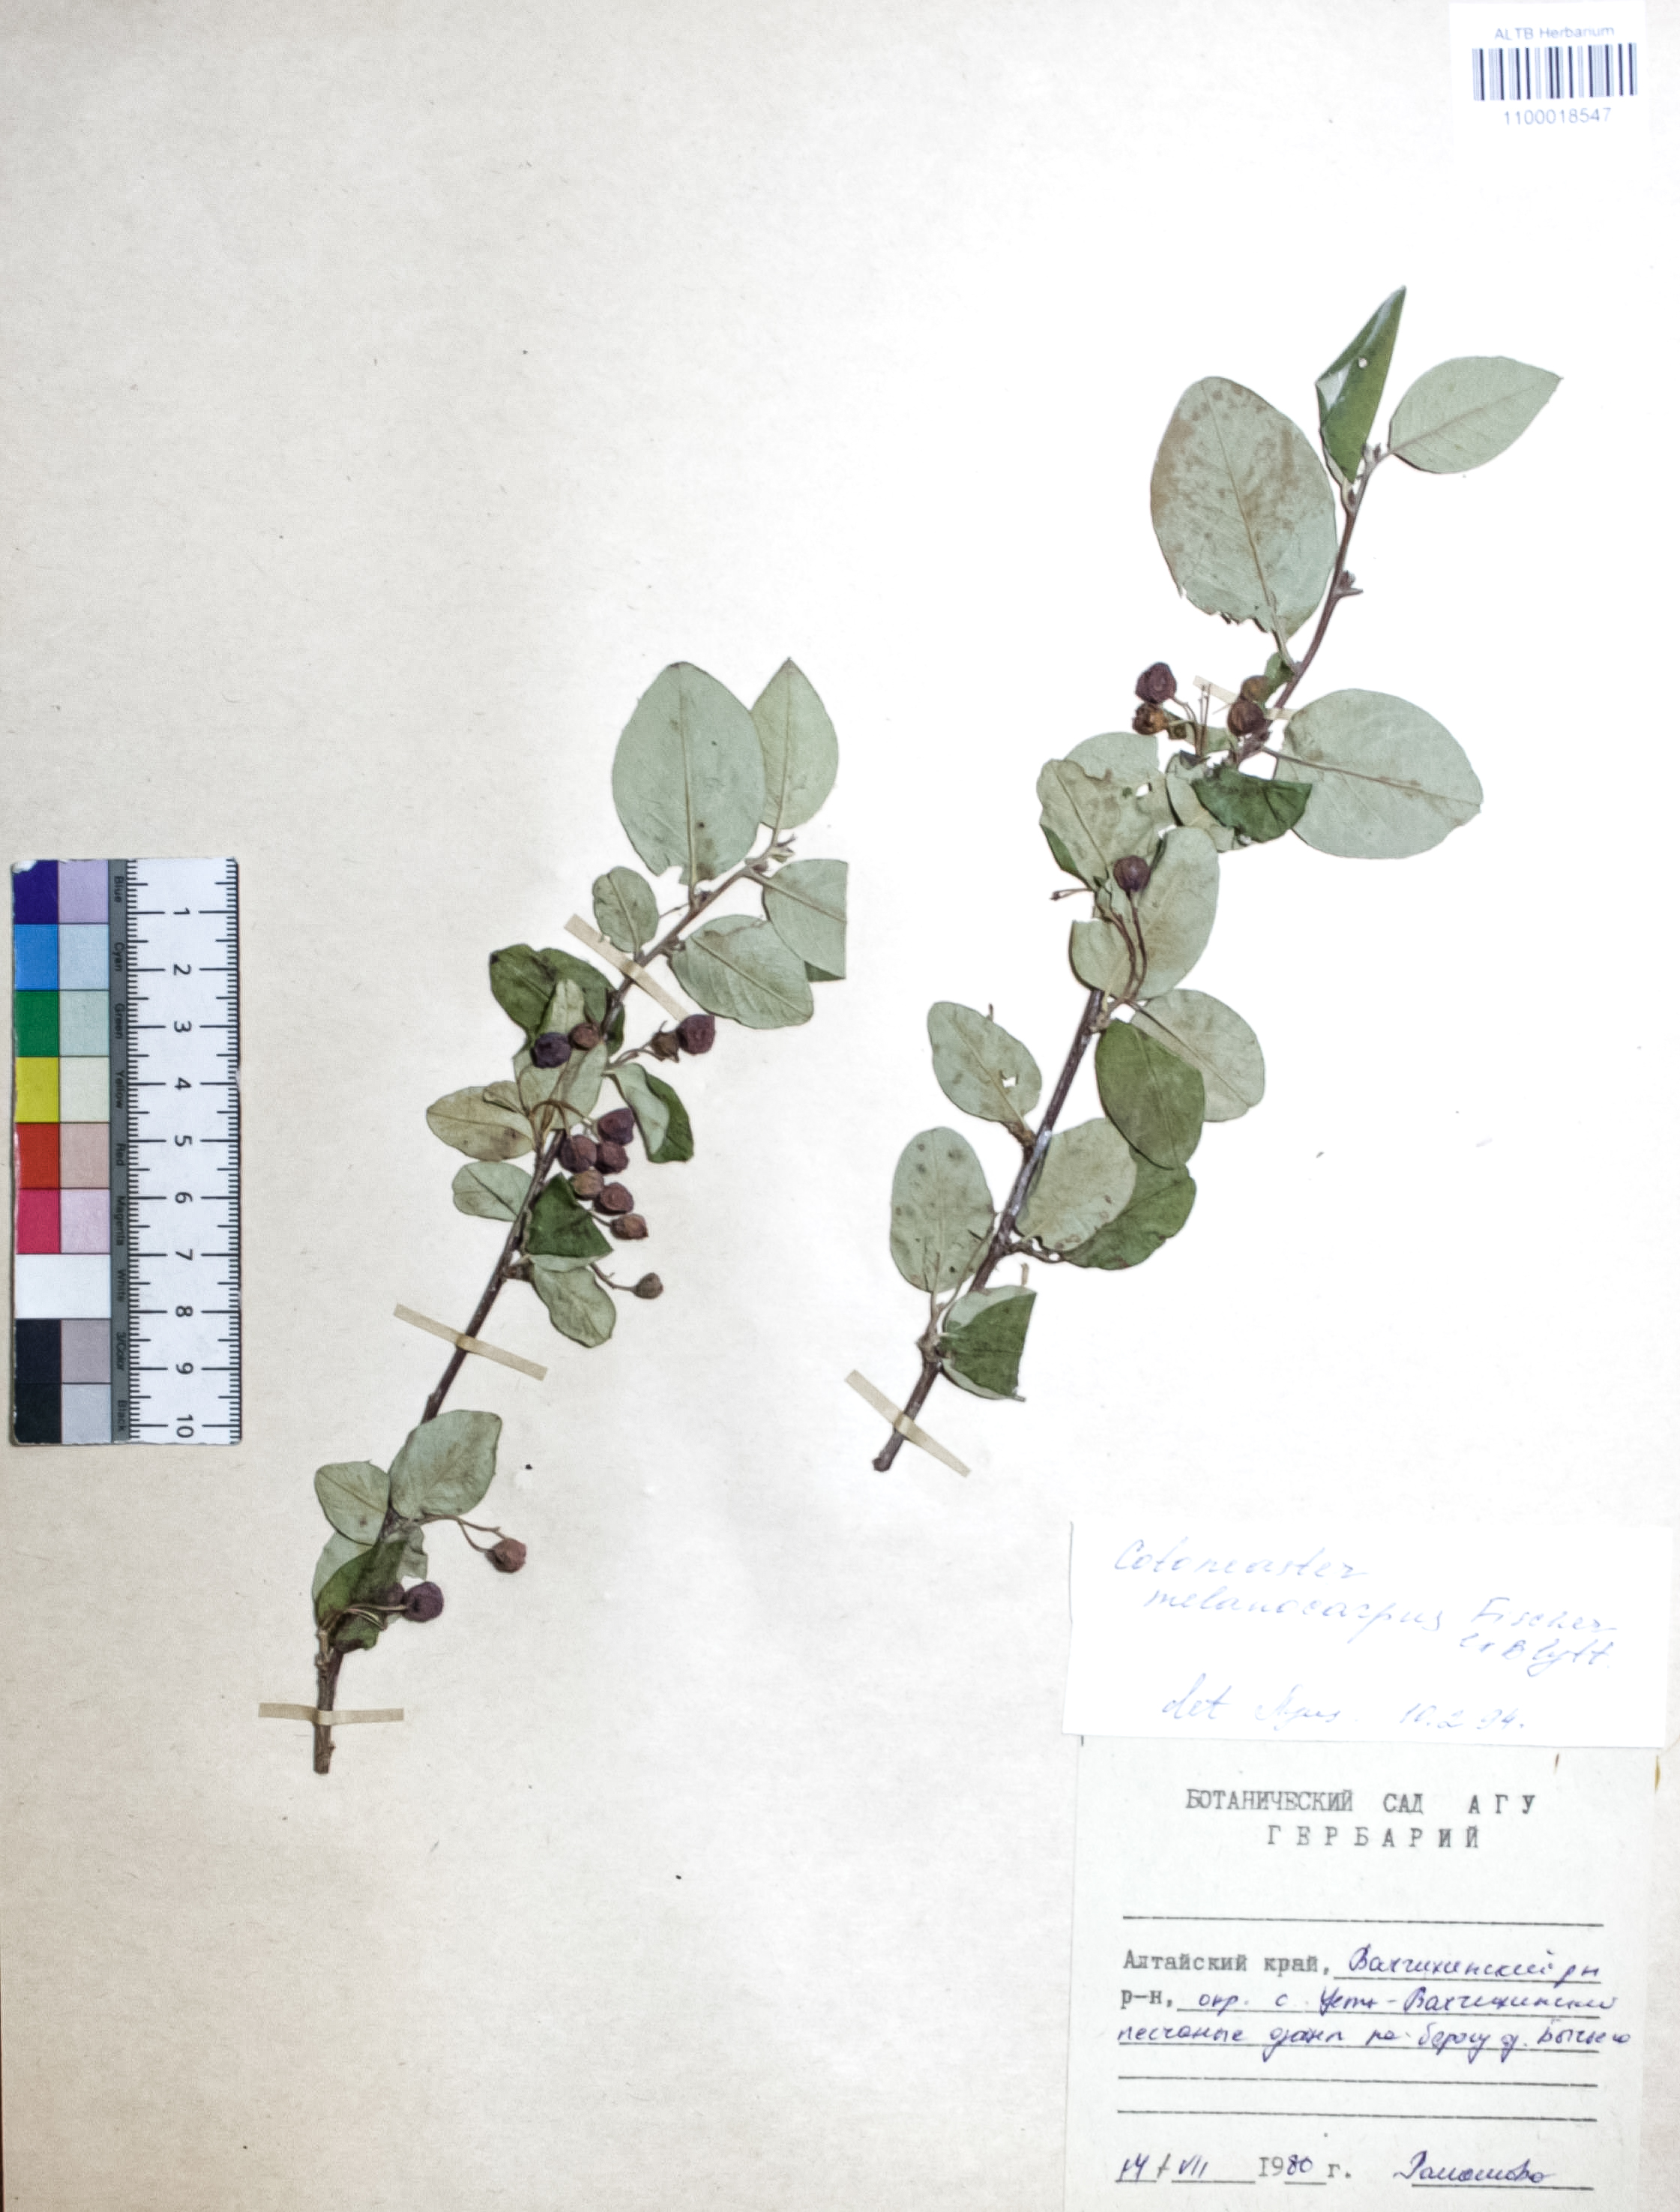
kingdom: Plantae
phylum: Tracheophyta
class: Magnoliopsida
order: Rosales
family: Rosaceae
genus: Cotoneaster
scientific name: Cotoneaster niger
